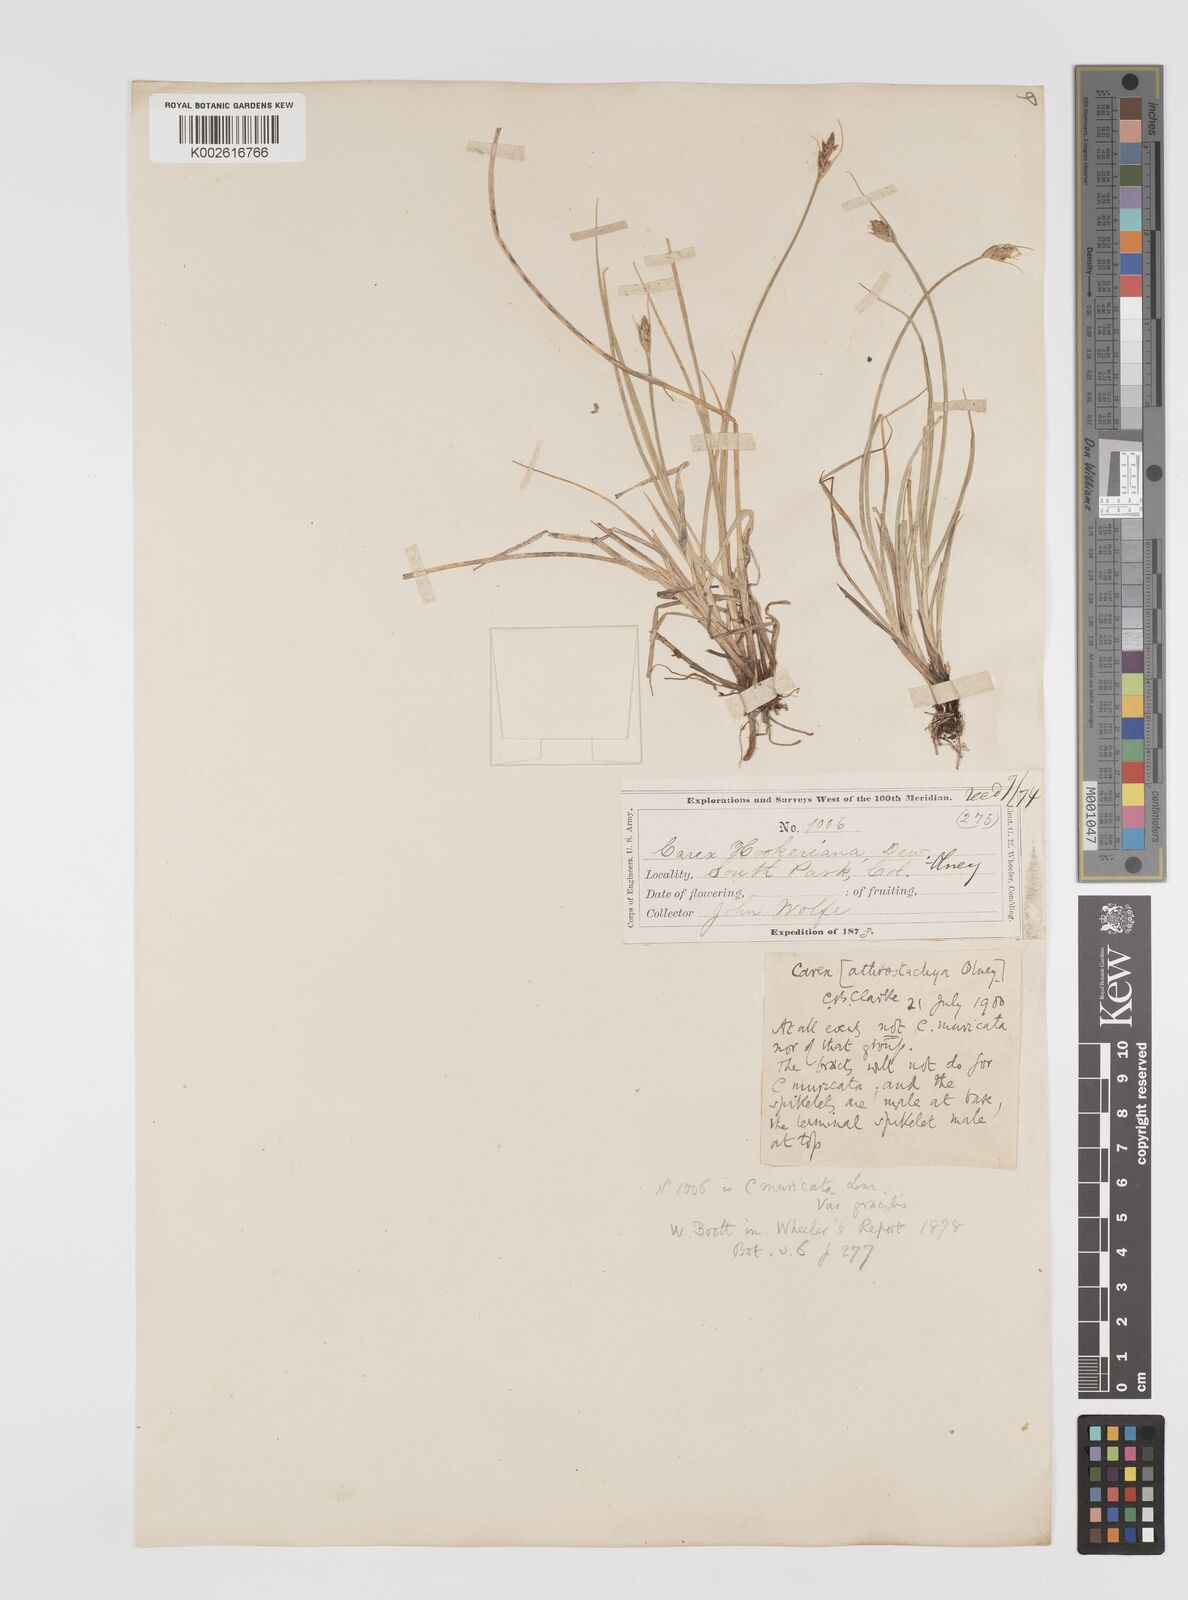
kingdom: Plantae
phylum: Tracheophyta
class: Liliopsida
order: Poales
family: Cyperaceae
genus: Carex
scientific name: Carex athrostachya
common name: Slenderbeak sedge
